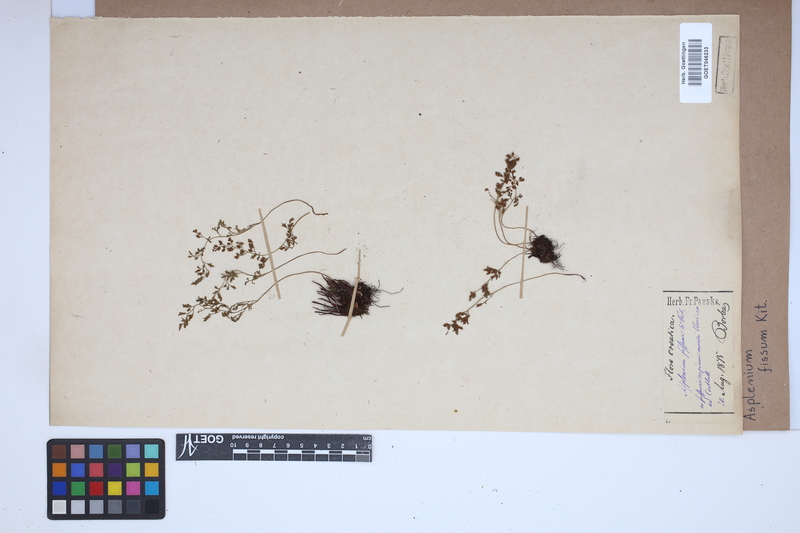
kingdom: Plantae
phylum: Tracheophyta
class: Polypodiopsida
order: Polypodiales
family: Aspleniaceae
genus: Asplenium
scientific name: Asplenium fissum
